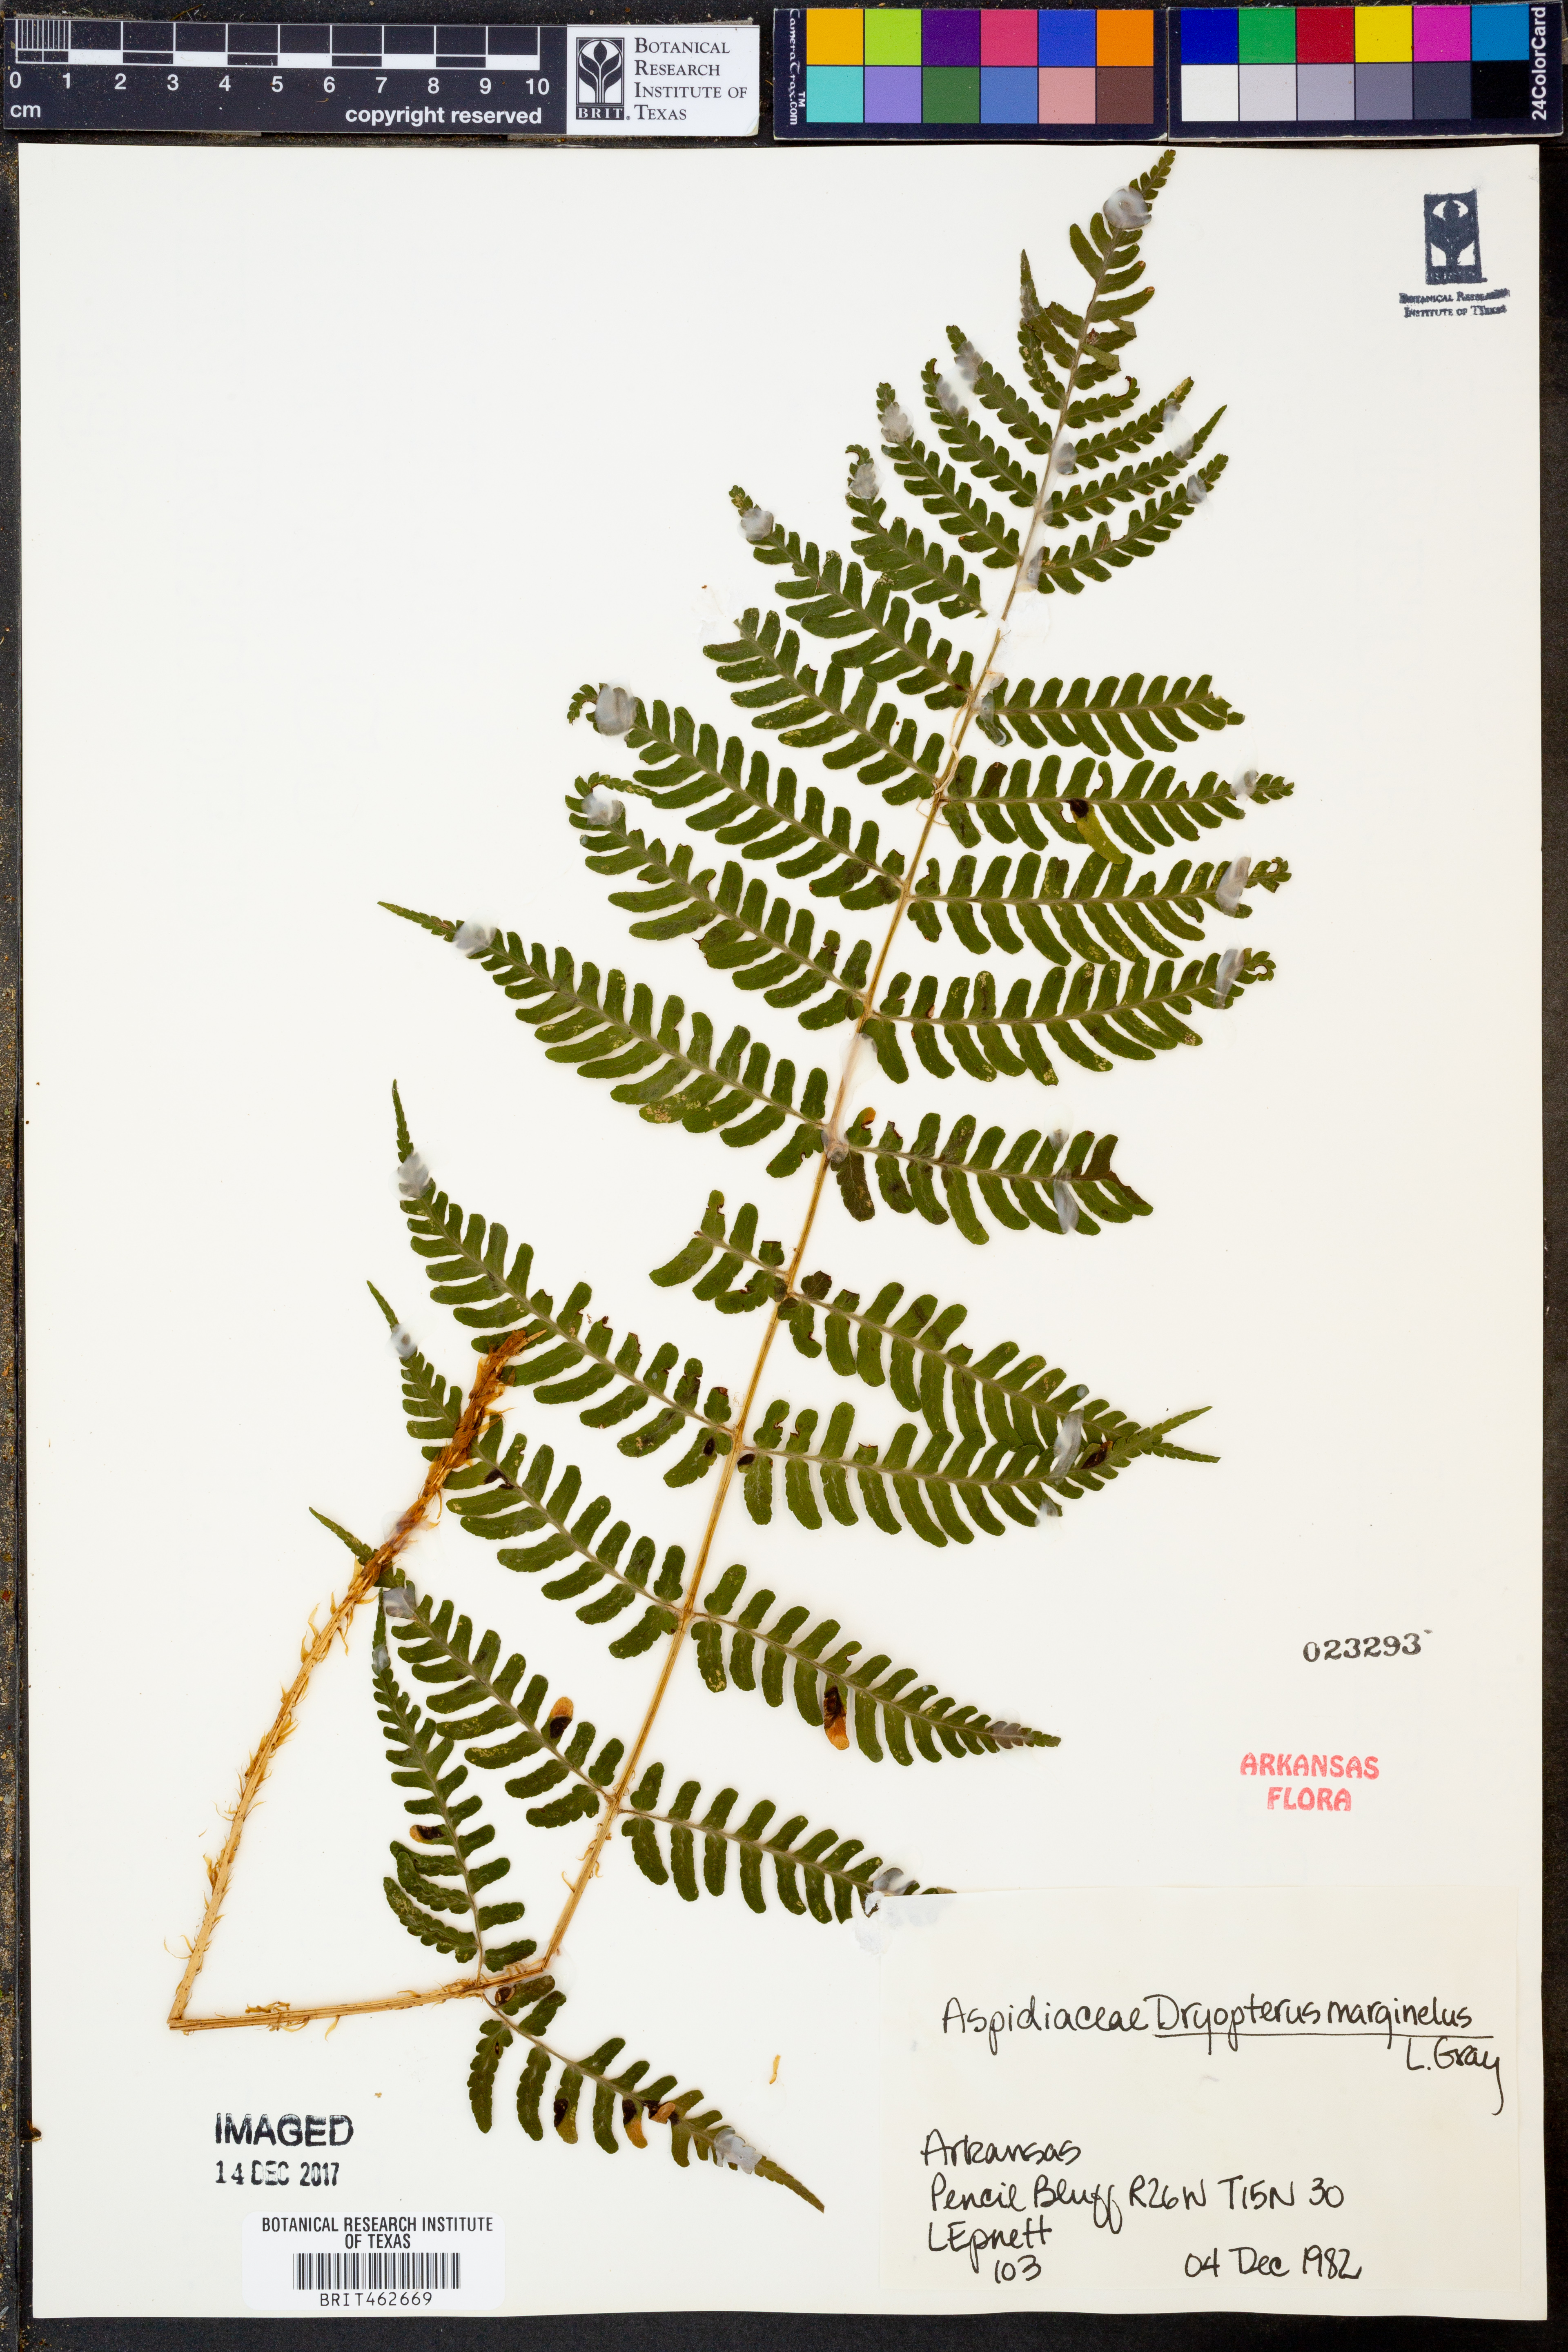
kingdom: Plantae
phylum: Tracheophyta
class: Polypodiopsida
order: Polypodiales
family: Dryopteridaceae
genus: Dryopteris
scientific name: Dryopteris marginalis
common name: Marginal wood fern
